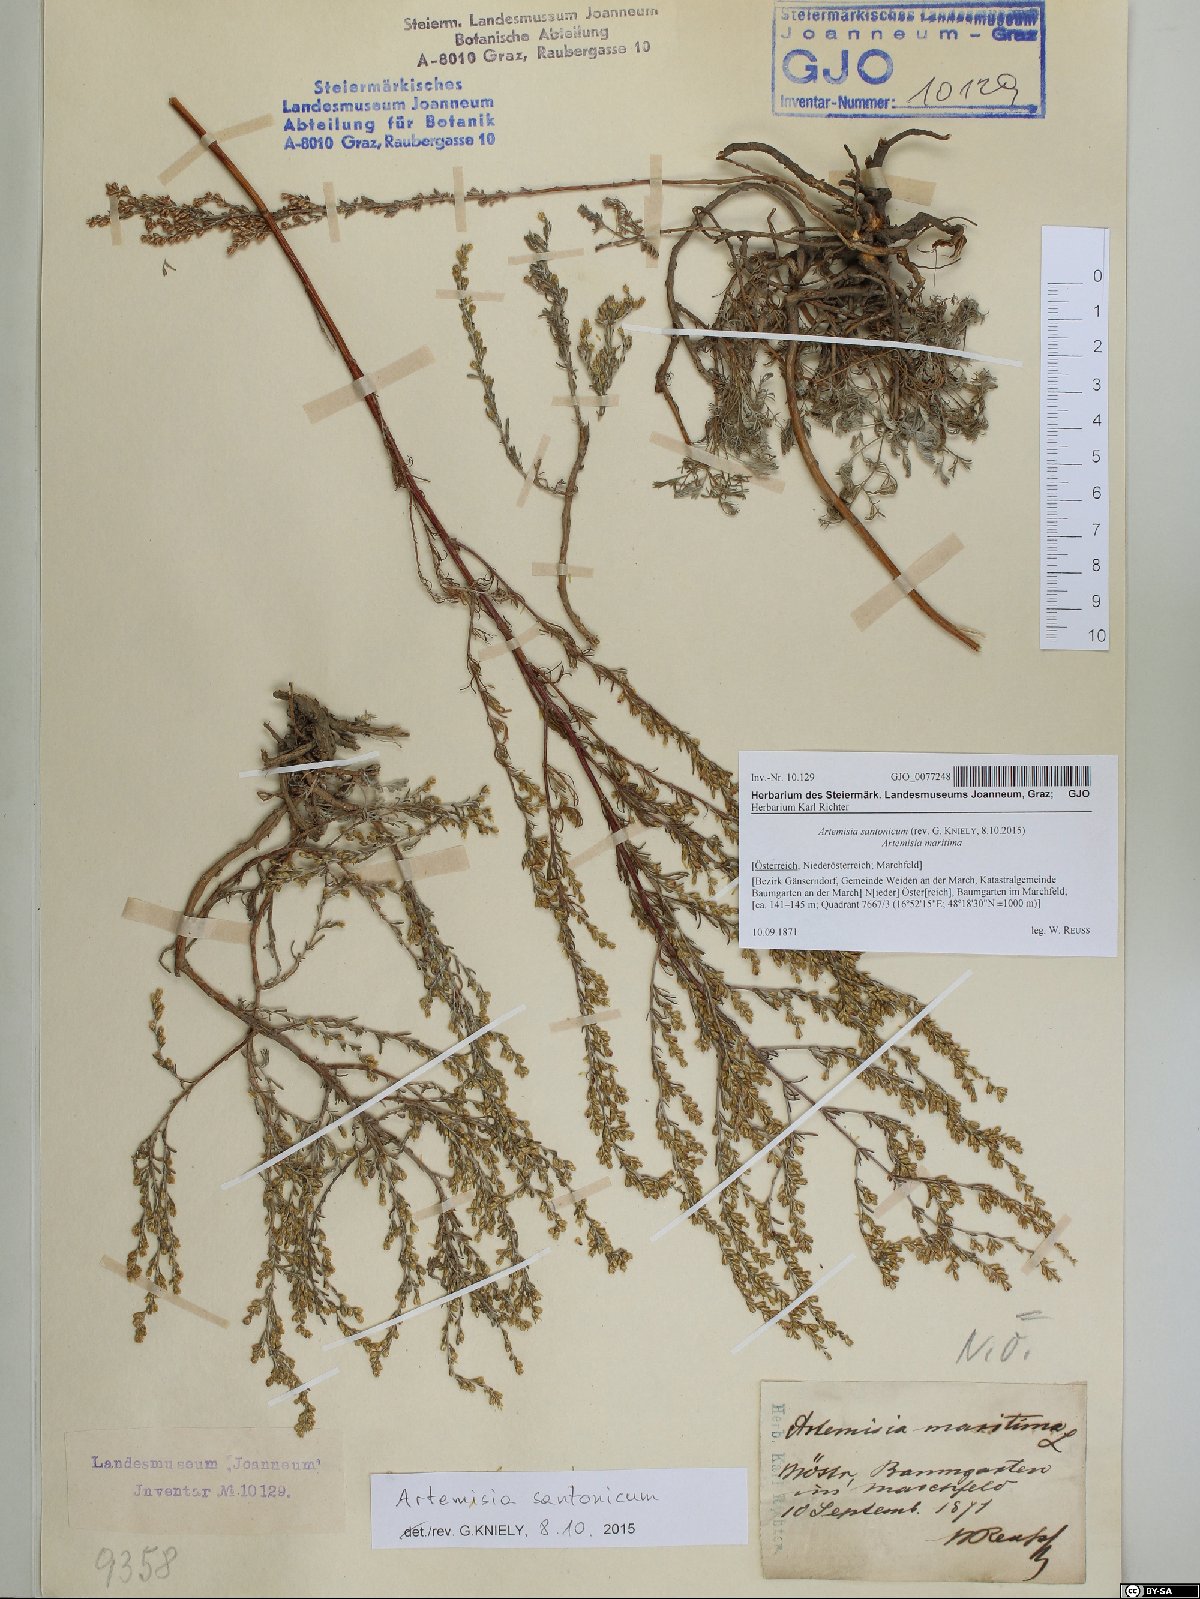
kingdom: Plantae
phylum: Tracheophyta
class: Magnoliopsida
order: Asterales
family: Asteraceae
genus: Artemisia
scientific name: Artemisia santonicum
